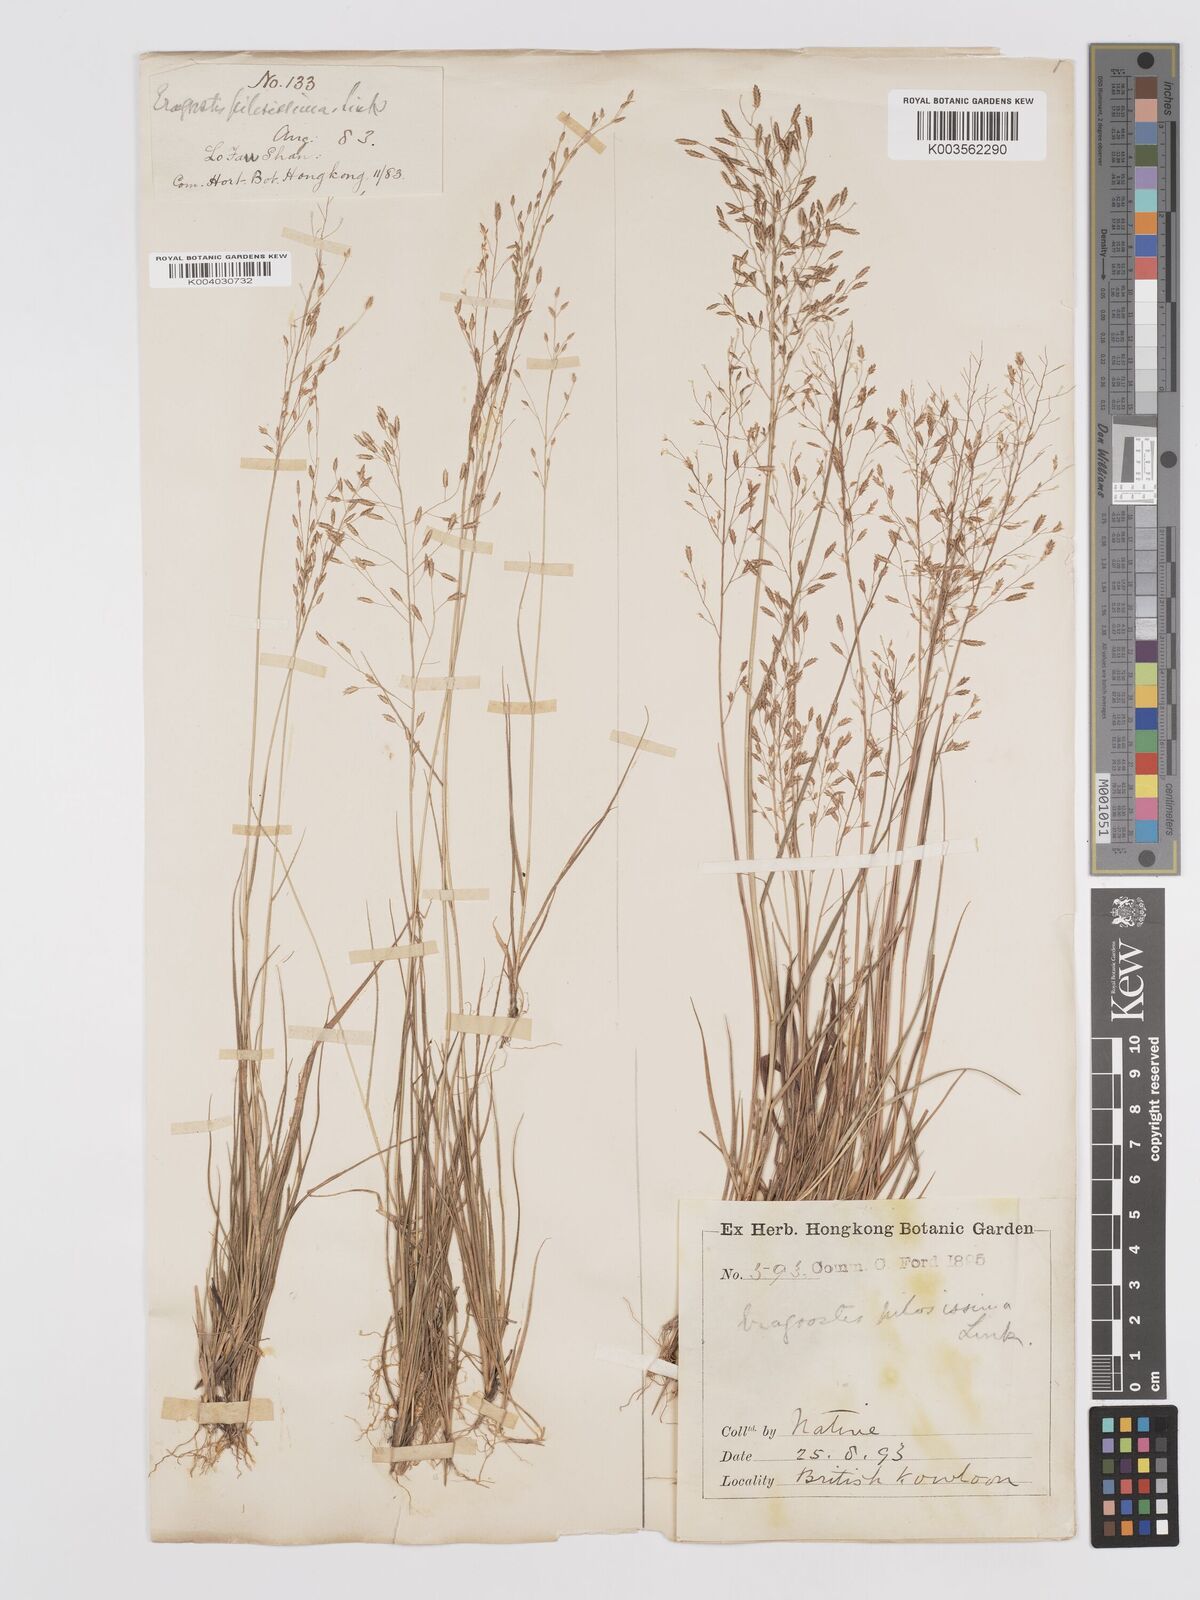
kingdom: Plantae
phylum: Tracheophyta
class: Liliopsida
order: Poales
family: Poaceae
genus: Eragrostis
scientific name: Eragrostis pilosissima
